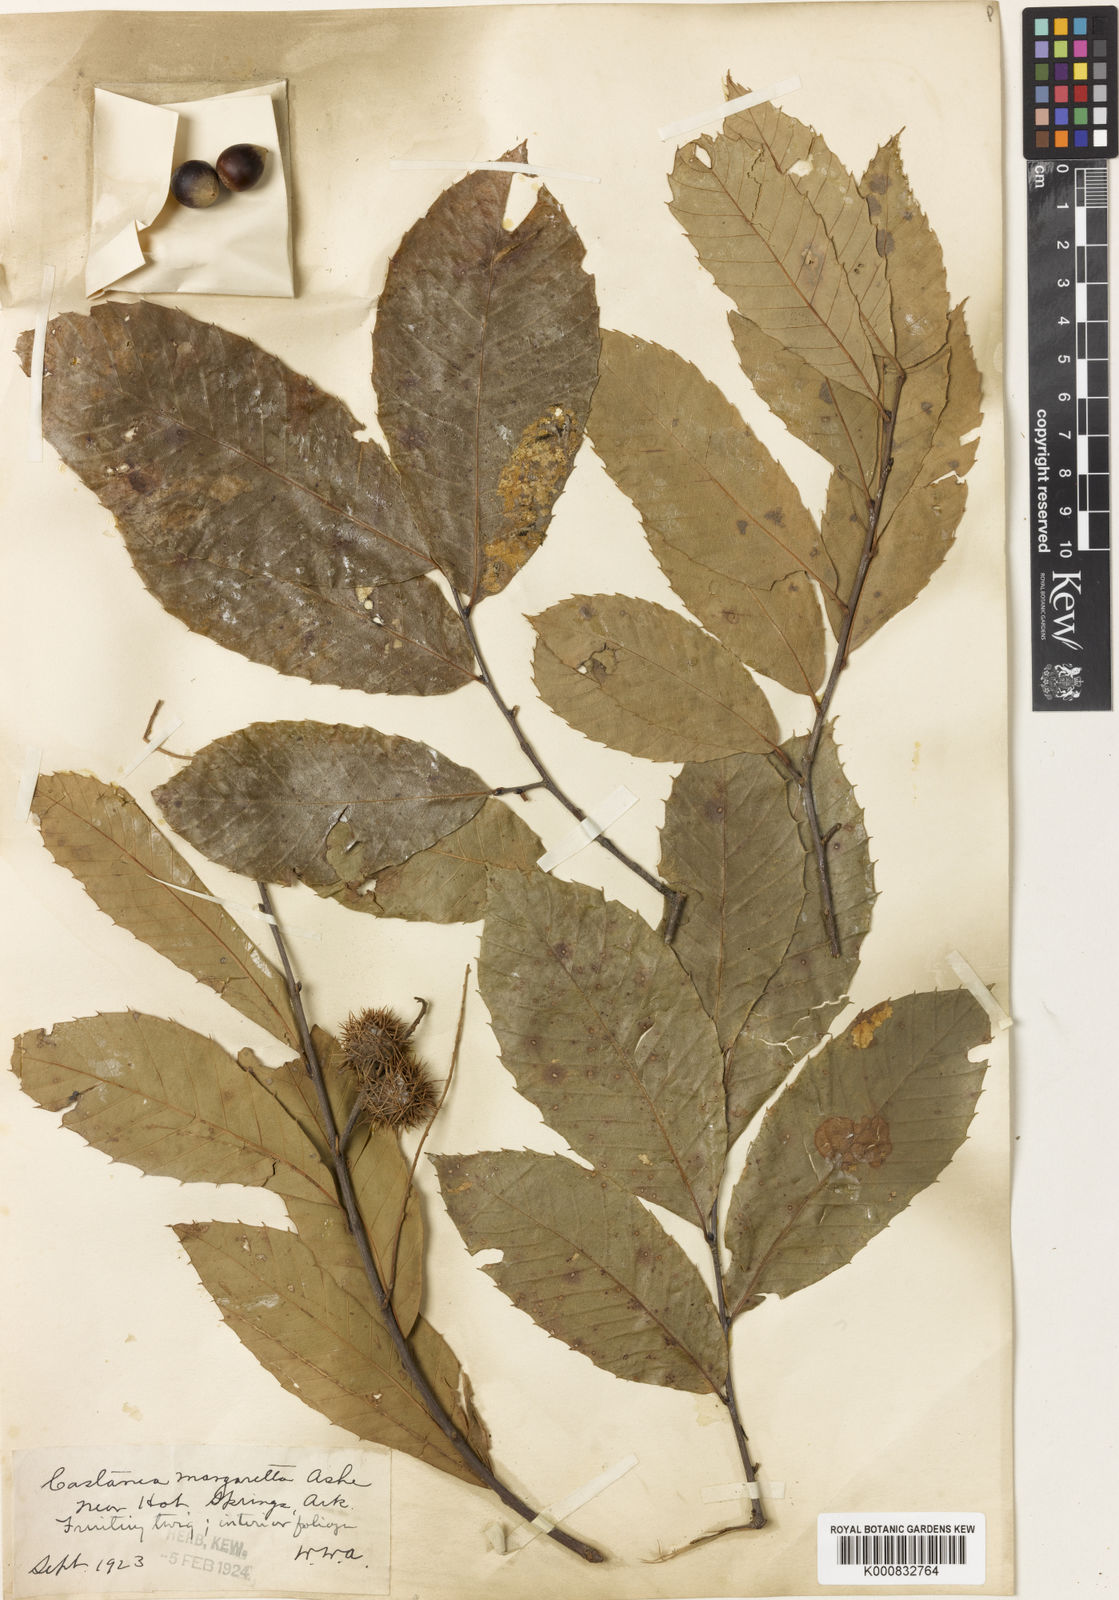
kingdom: Plantae
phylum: Tracheophyta
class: Magnoliopsida
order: Fagales
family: Fagaceae
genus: Castanea
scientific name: Castanea pumila
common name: Chinkapin
